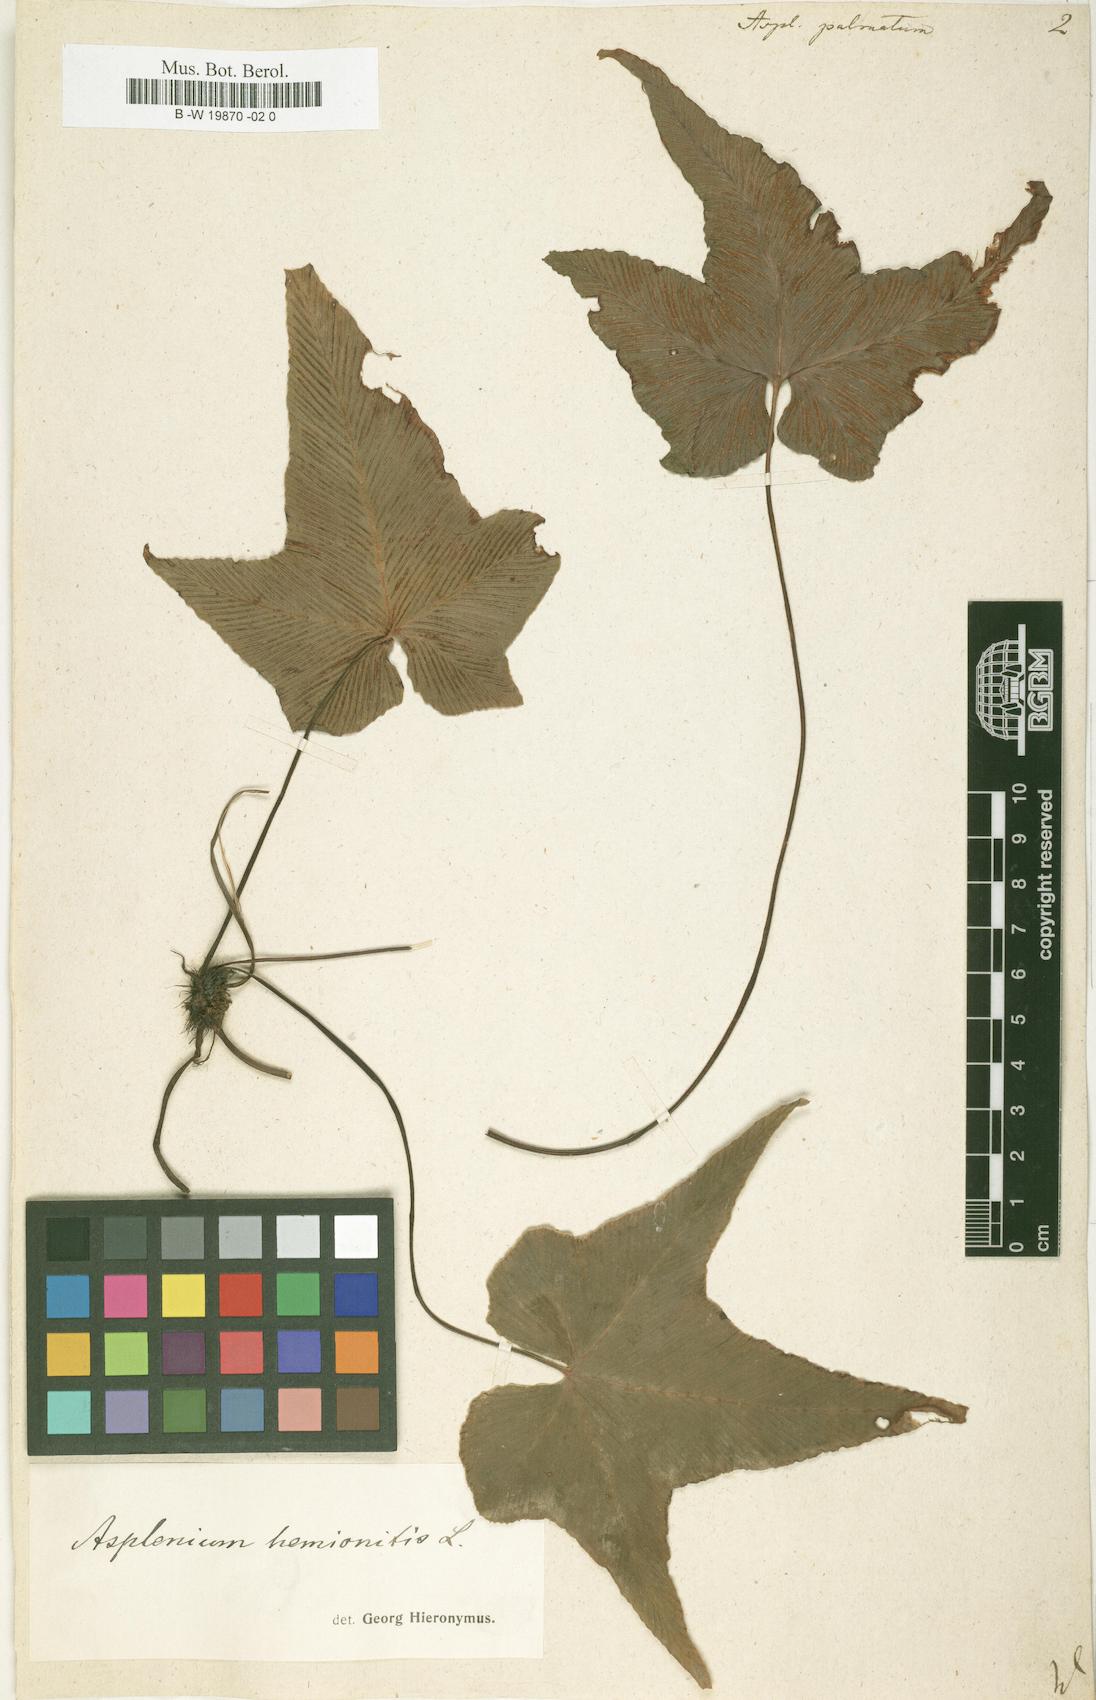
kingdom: Plantae
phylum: Tracheophyta
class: Polypodiopsida
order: Polypodiales
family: Aspleniaceae
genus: Asplenium
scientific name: Asplenium hemionitis
